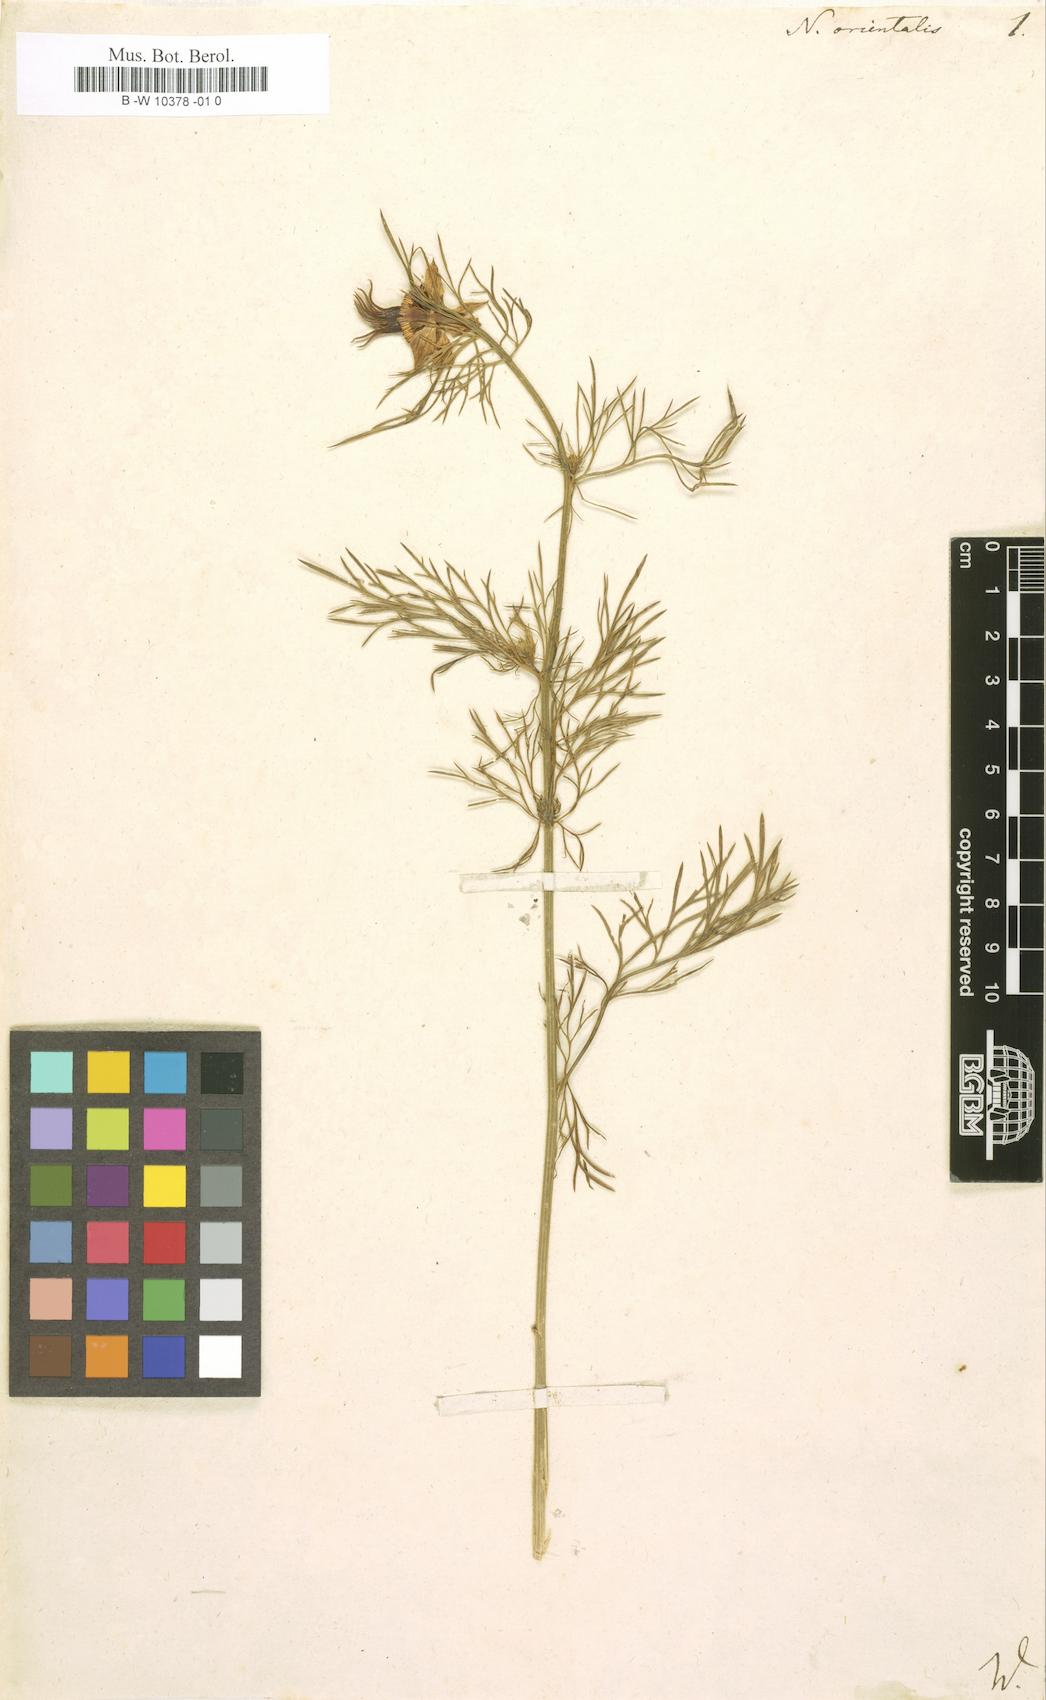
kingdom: Plantae
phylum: Tracheophyta
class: Magnoliopsida
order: Ranunculales
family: Ranunculaceae
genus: Nigella
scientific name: Nigella orientalis
